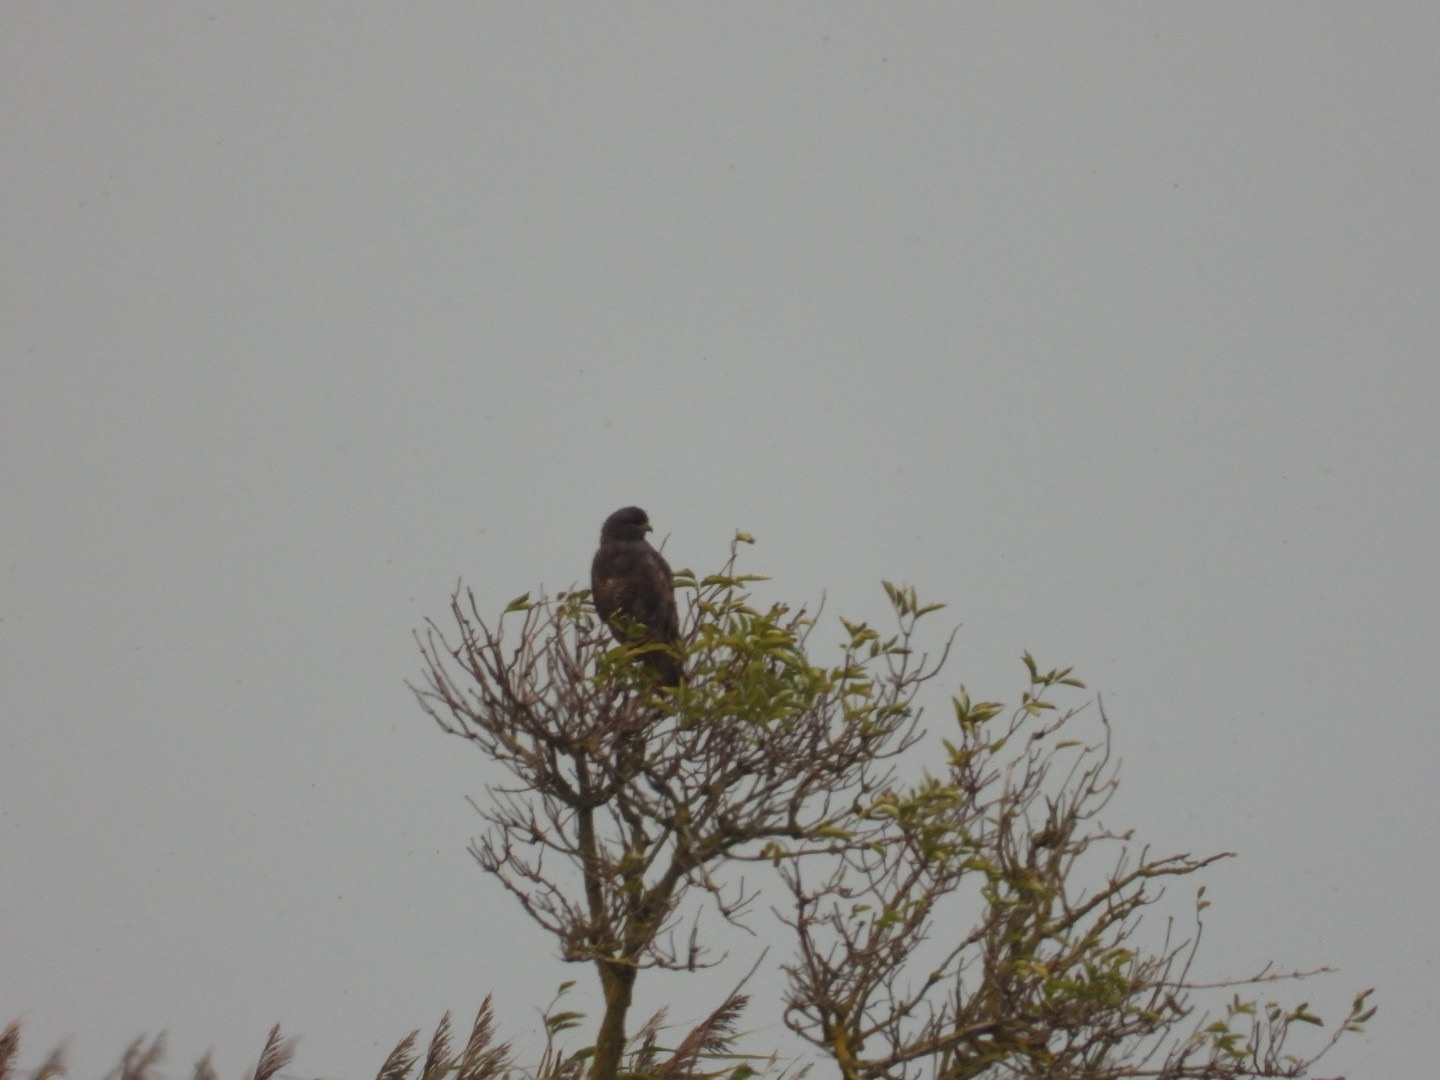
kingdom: Animalia
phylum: Chordata
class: Aves
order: Accipitriformes
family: Accipitridae
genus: Buteo
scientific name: Buteo buteo
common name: Musvåge
